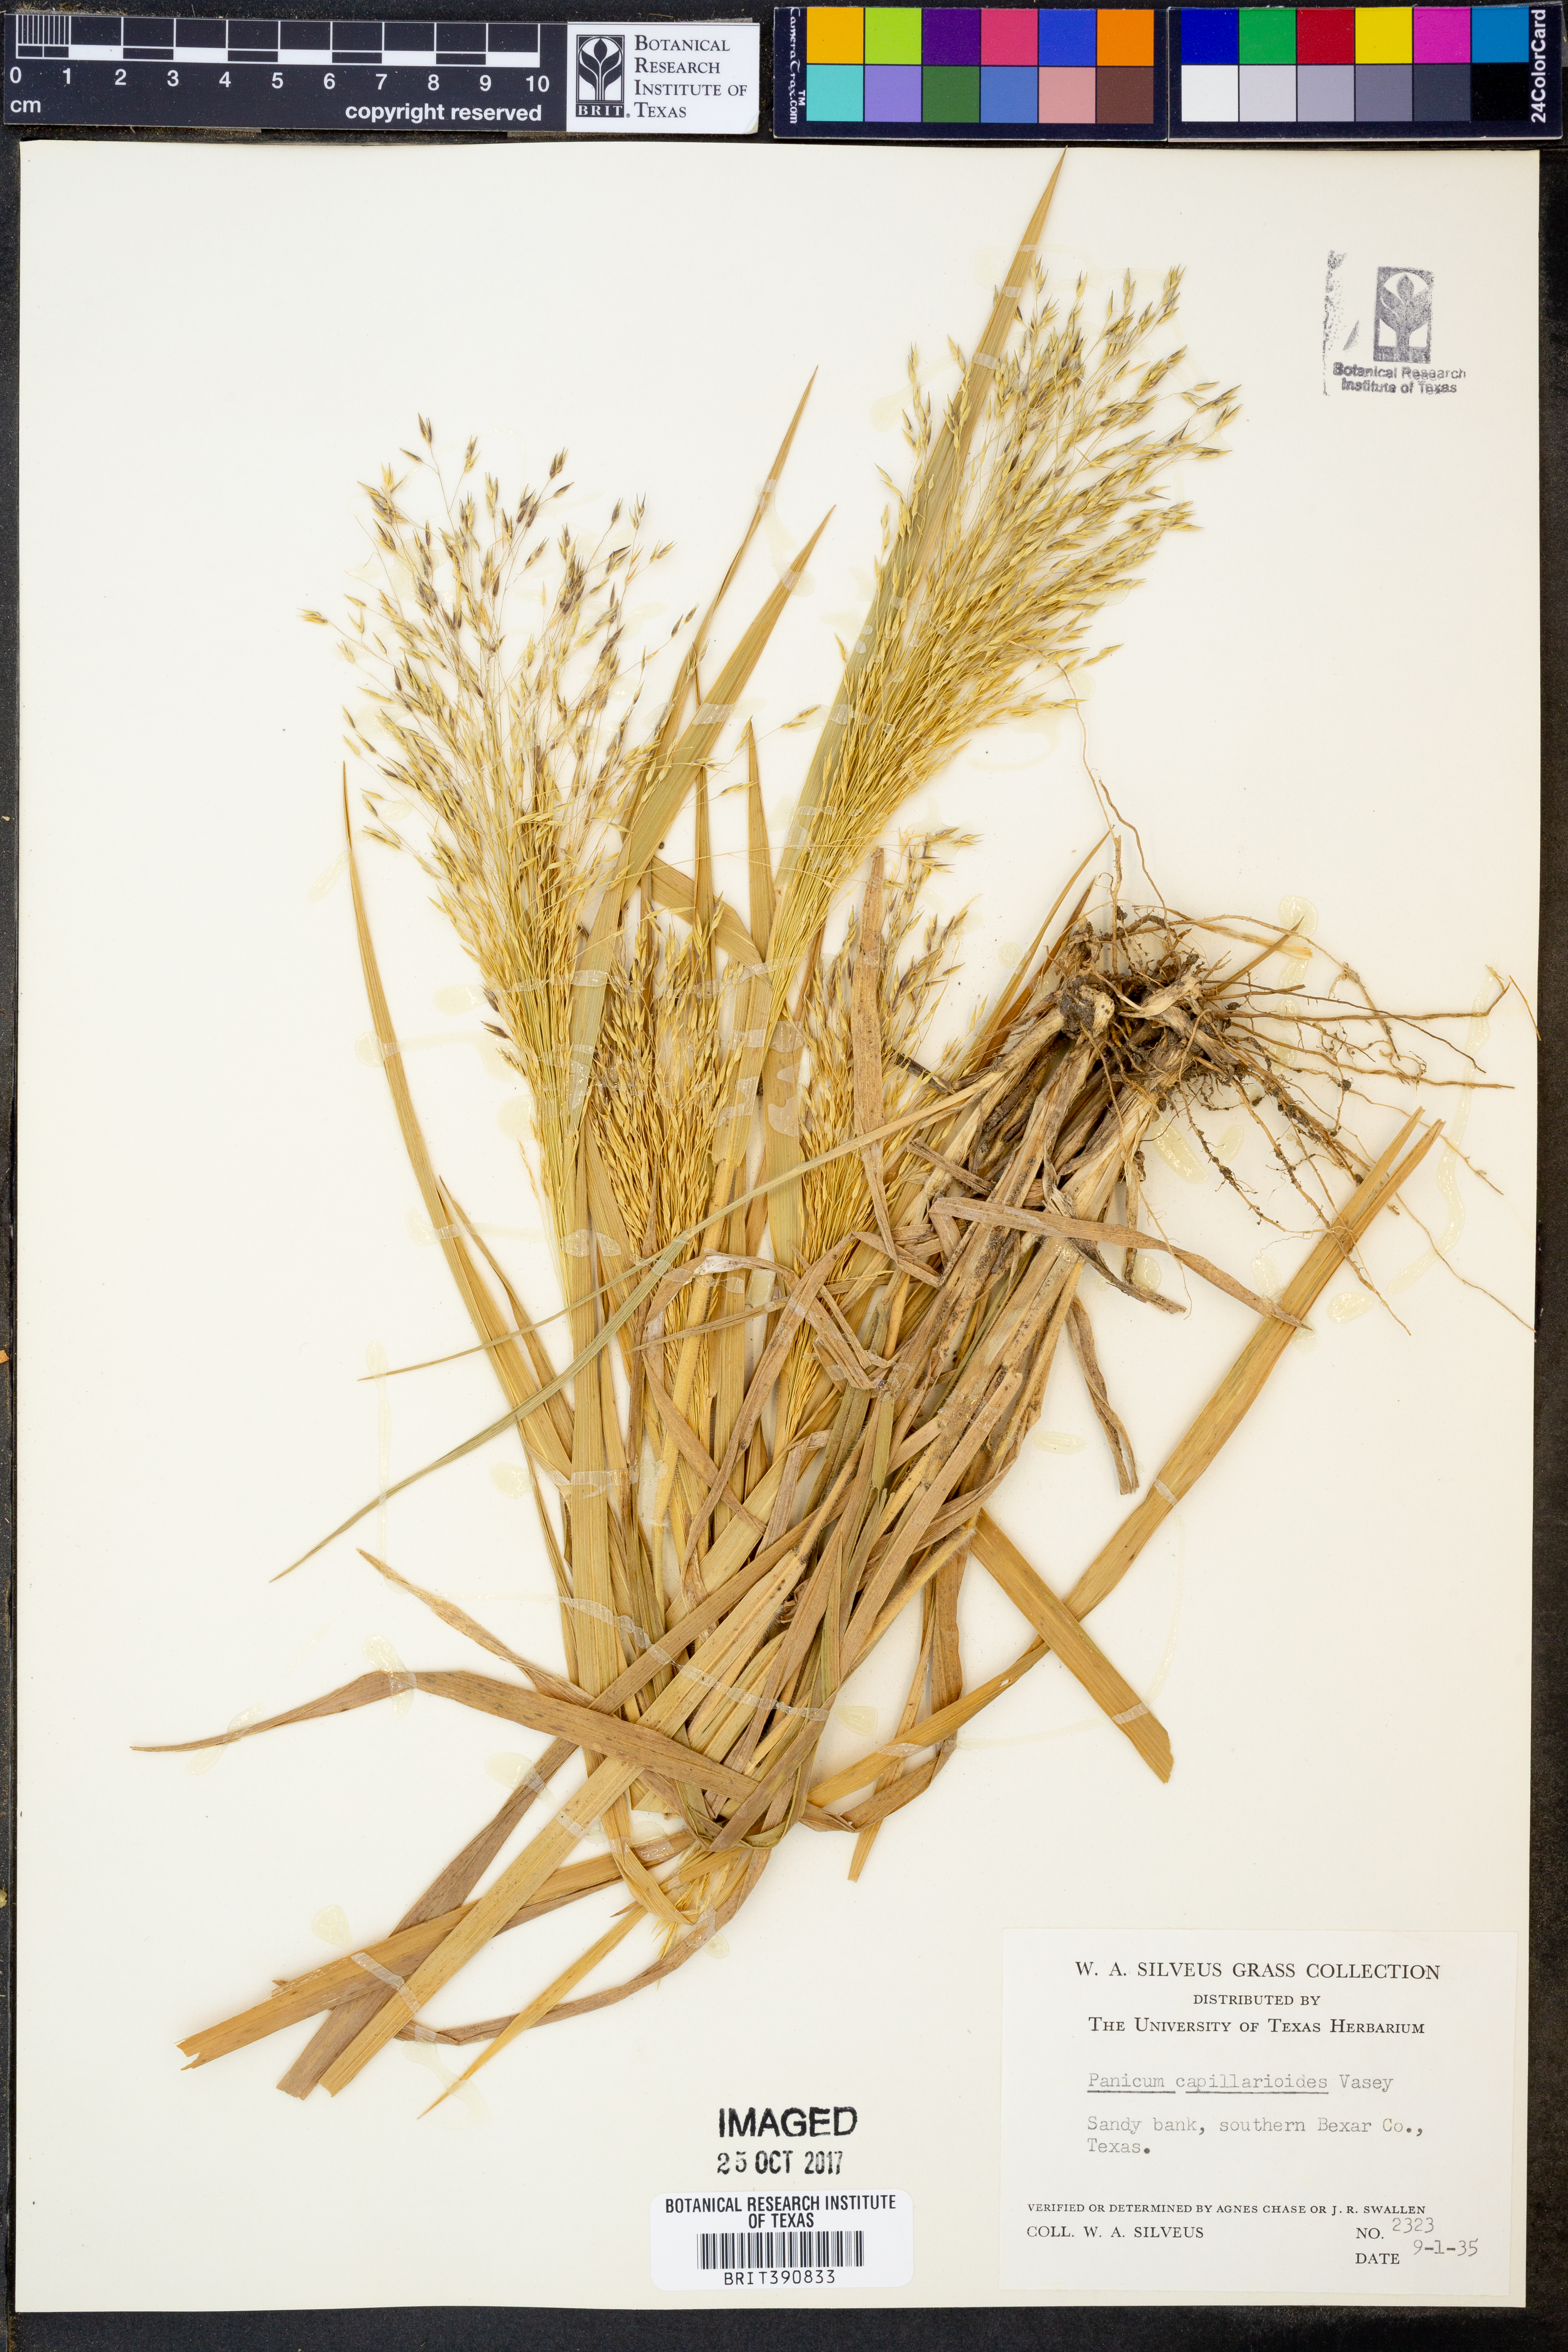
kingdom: Plantae
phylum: Tracheophyta
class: Liliopsida
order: Poales
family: Poaceae
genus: Panicum
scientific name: Panicum capillarioides
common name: Long-beak witchgrass
